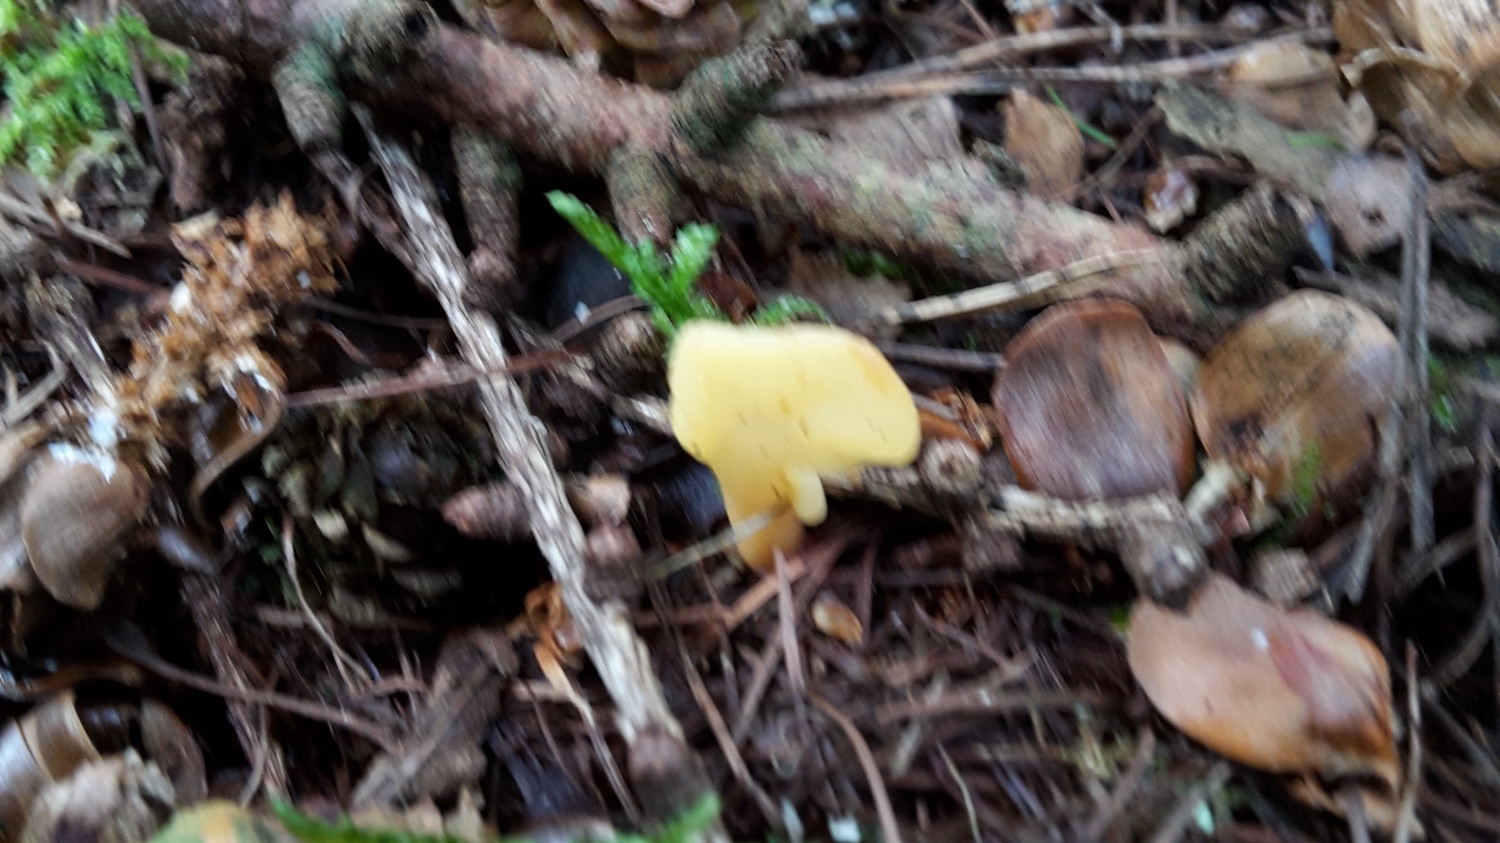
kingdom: Fungi
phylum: Ascomycota
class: Leotiomycetes
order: Rhytismatales
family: Cudoniaceae
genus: Spathularia
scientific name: Spathularia flavida
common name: gul spatelsvamp
